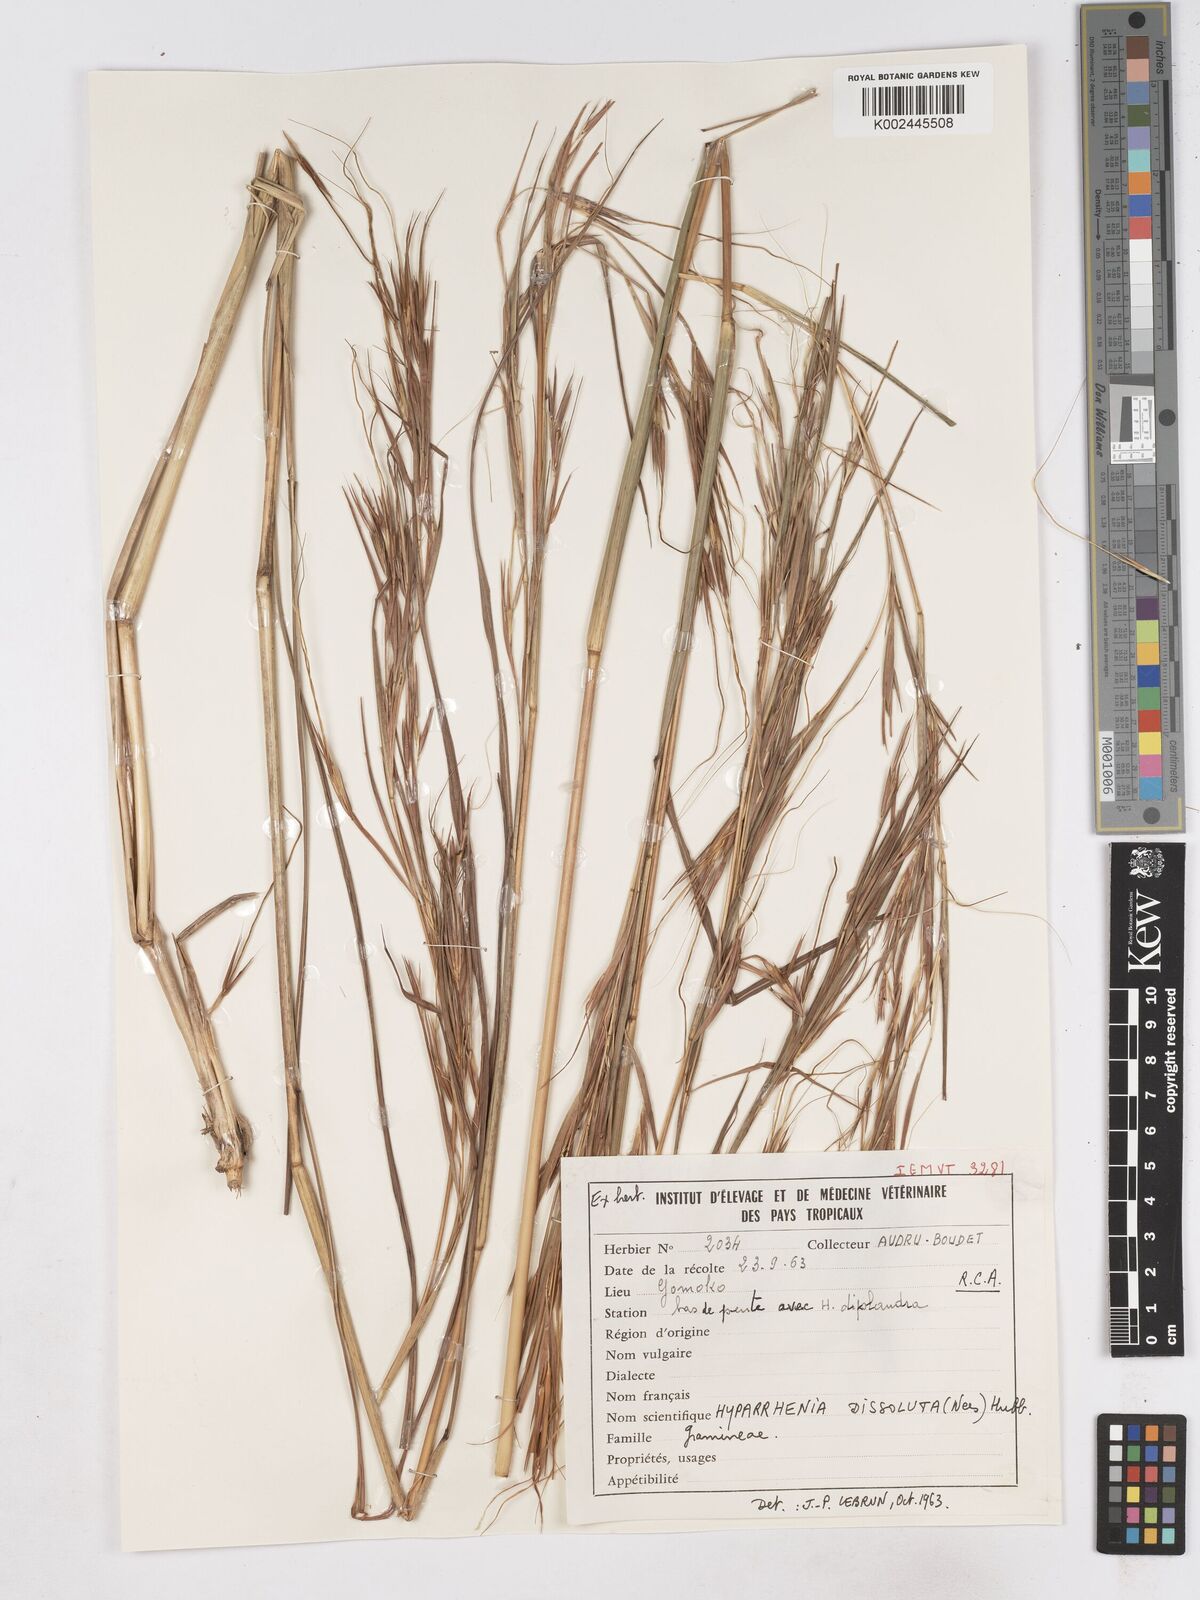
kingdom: Plantae
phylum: Tracheophyta
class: Liliopsida
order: Poales
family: Poaceae
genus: Hyperthelia
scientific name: Hyperthelia dissoluta
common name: Yellow thatching grass
